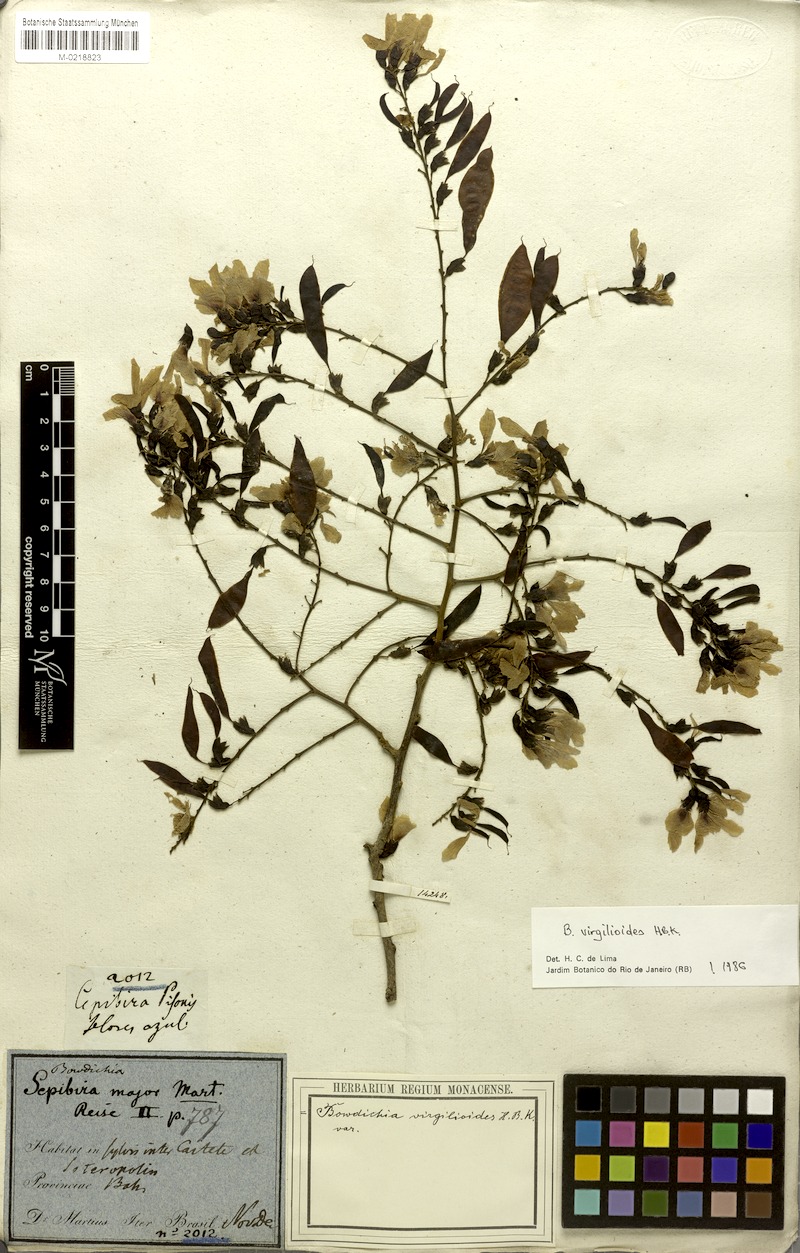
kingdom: Plantae
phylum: Tracheophyta
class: Magnoliopsida
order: Fabales
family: Fabaceae
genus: Bowdichia
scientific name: Bowdichia virgilioides
